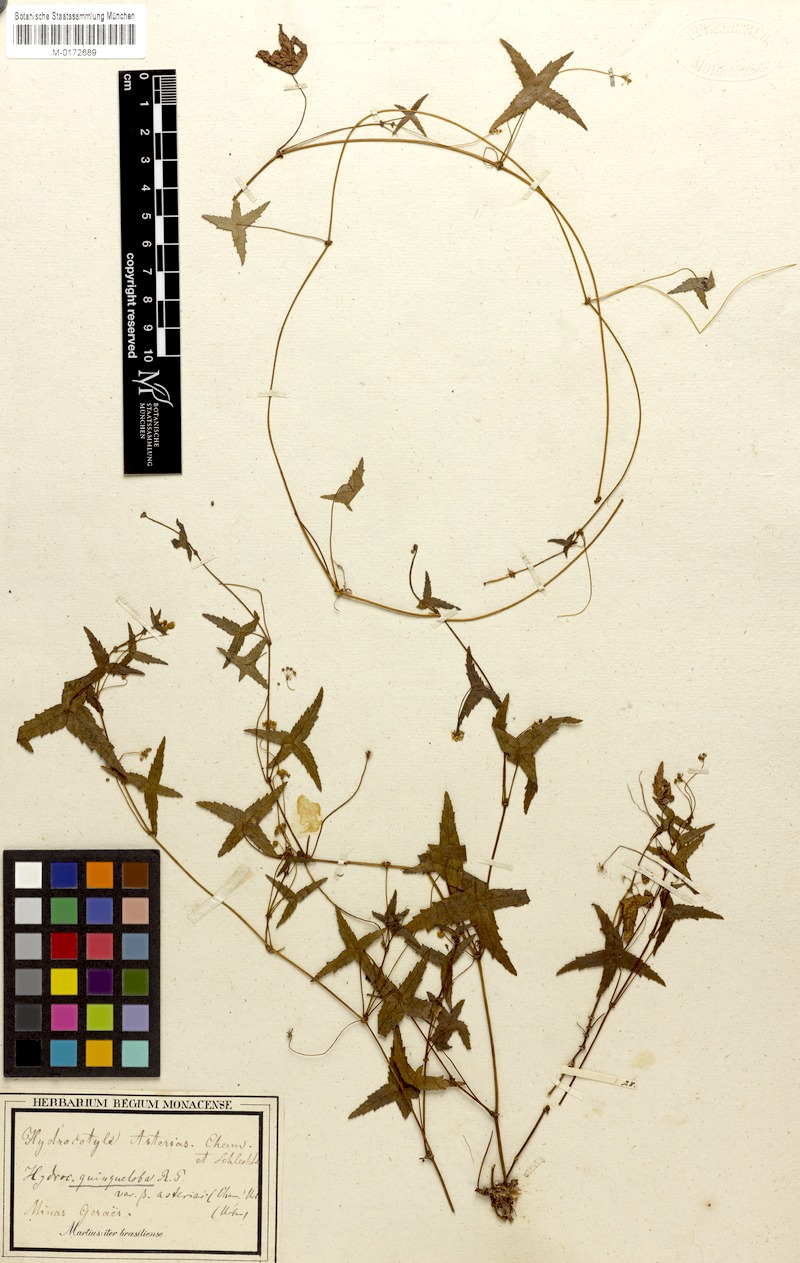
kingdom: Plantae
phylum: Tracheophyta
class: Magnoliopsida
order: Apiales
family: Araliaceae
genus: Hydrocotyle
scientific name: Hydrocotyle quinqueloba
